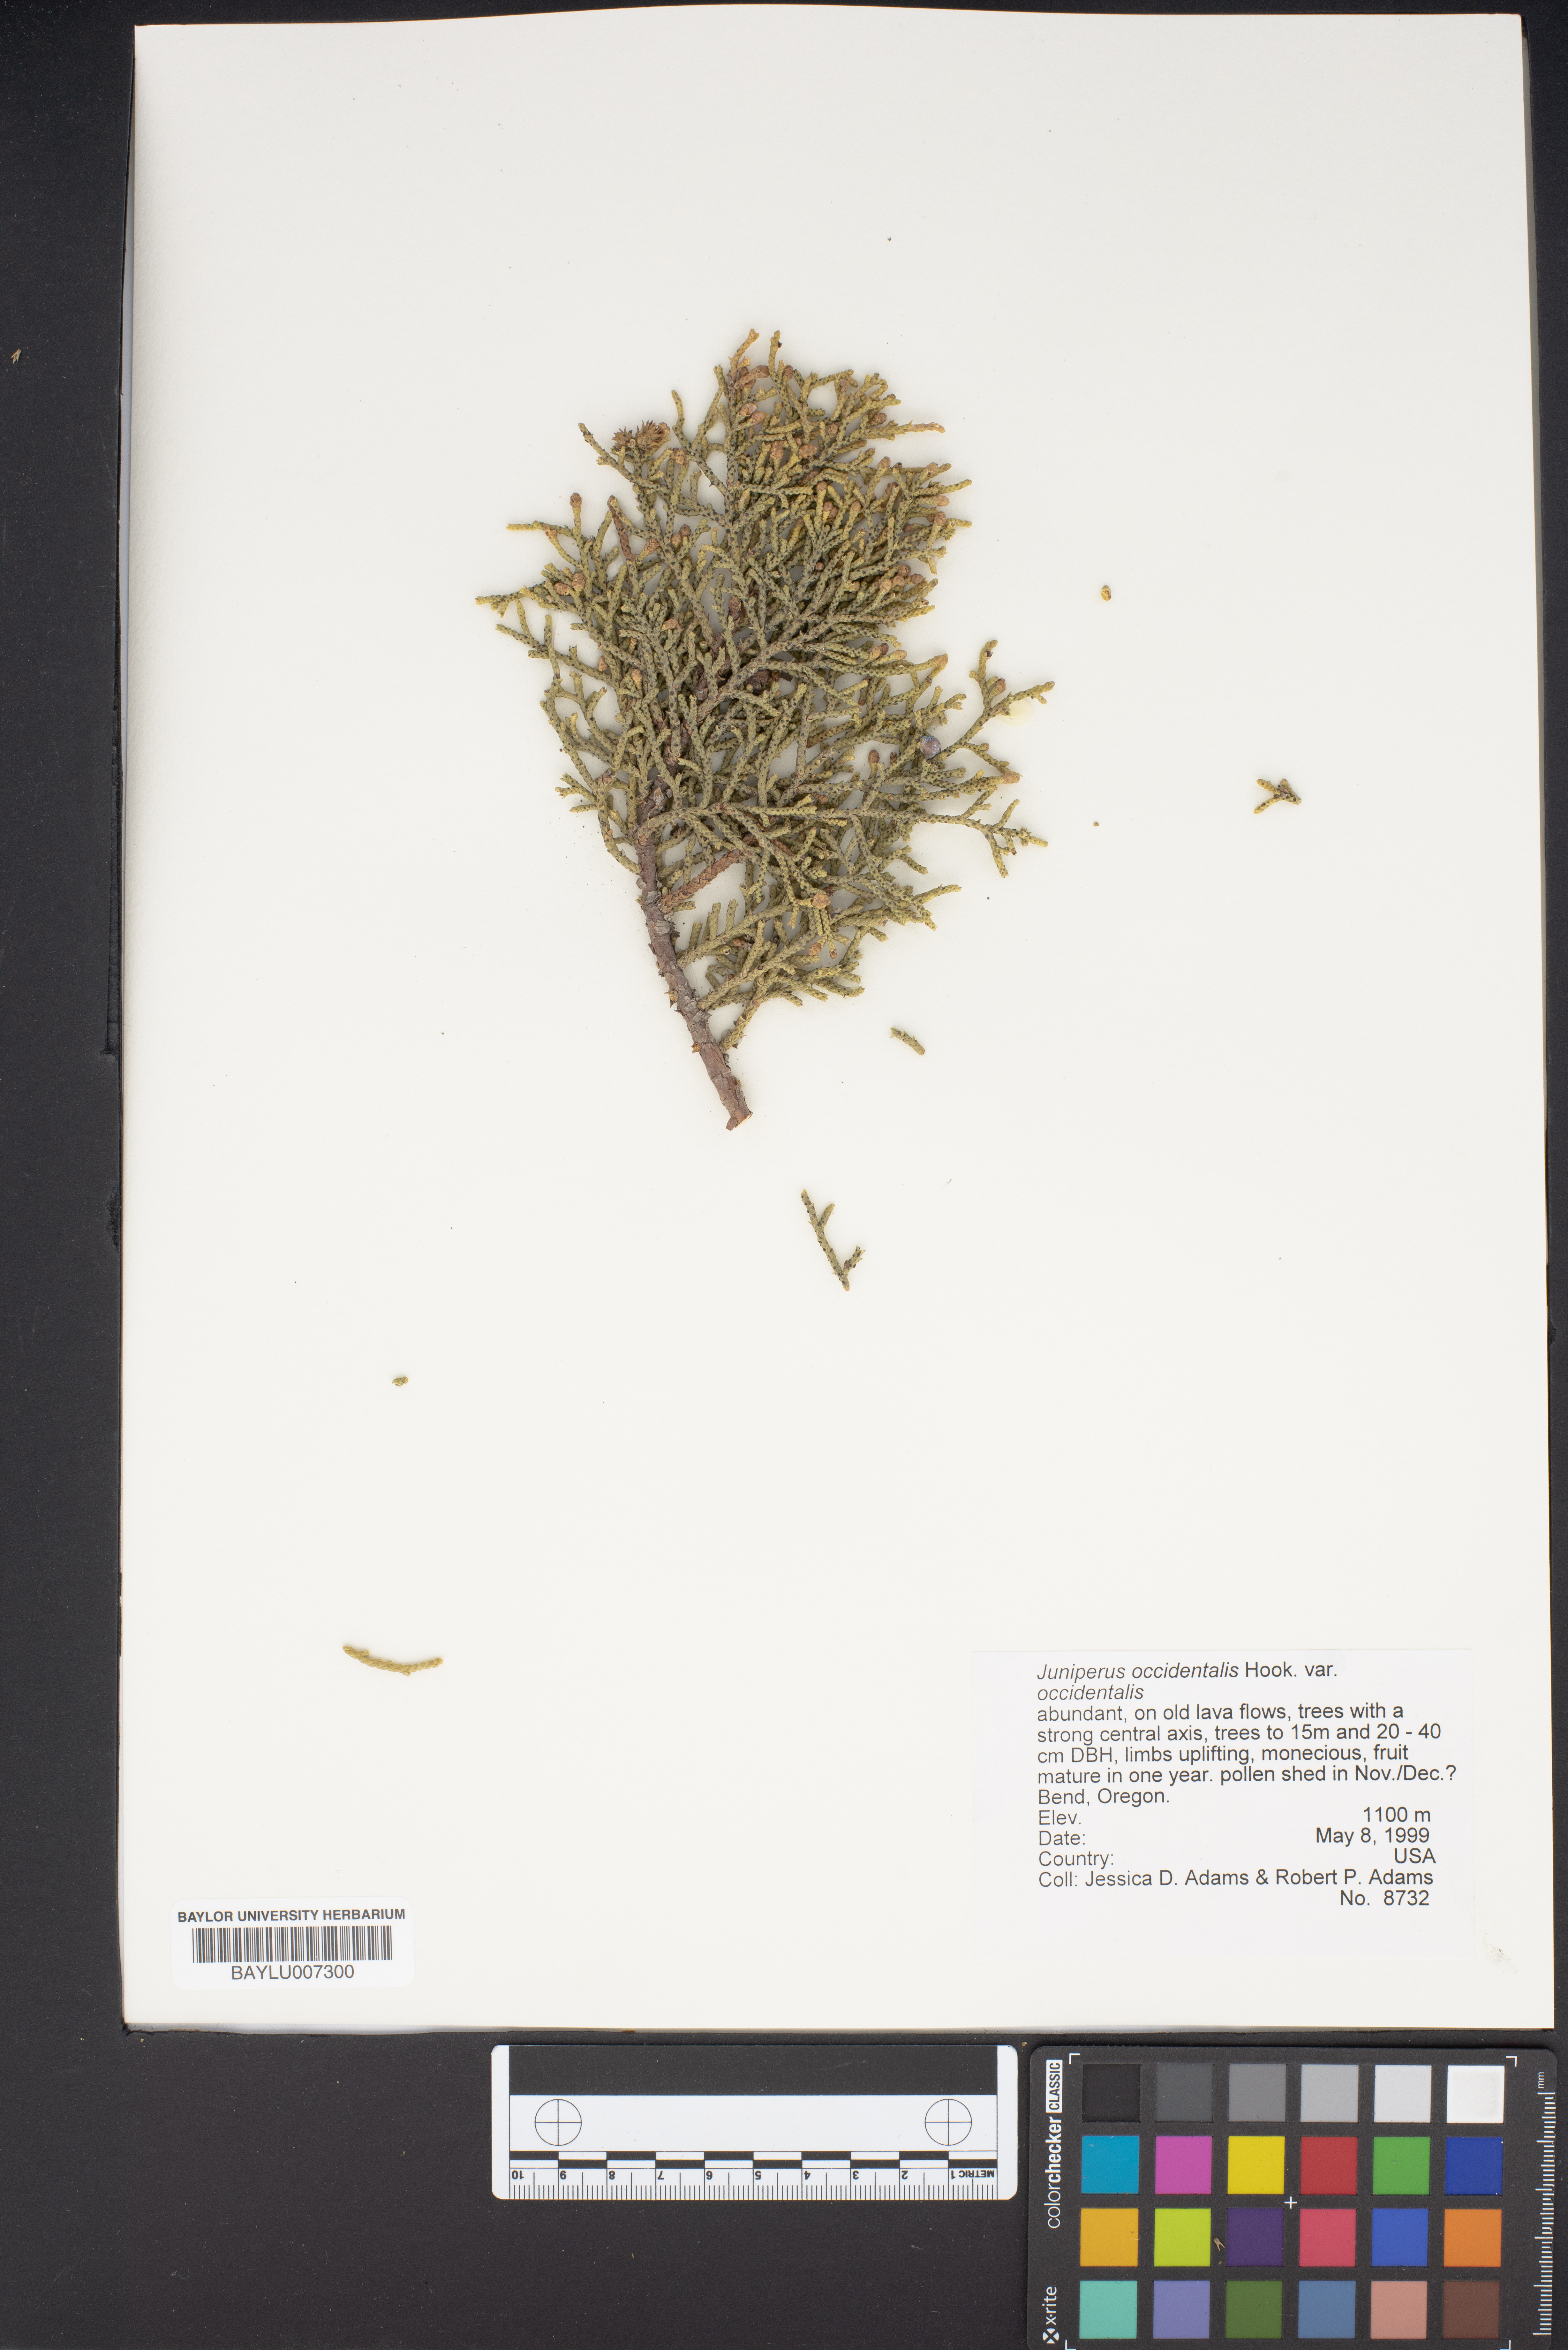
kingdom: Plantae
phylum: Tracheophyta
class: Pinopsida
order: Pinales
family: Cupressaceae
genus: Juniperus
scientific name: Juniperus occidentalis
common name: Western juniper
